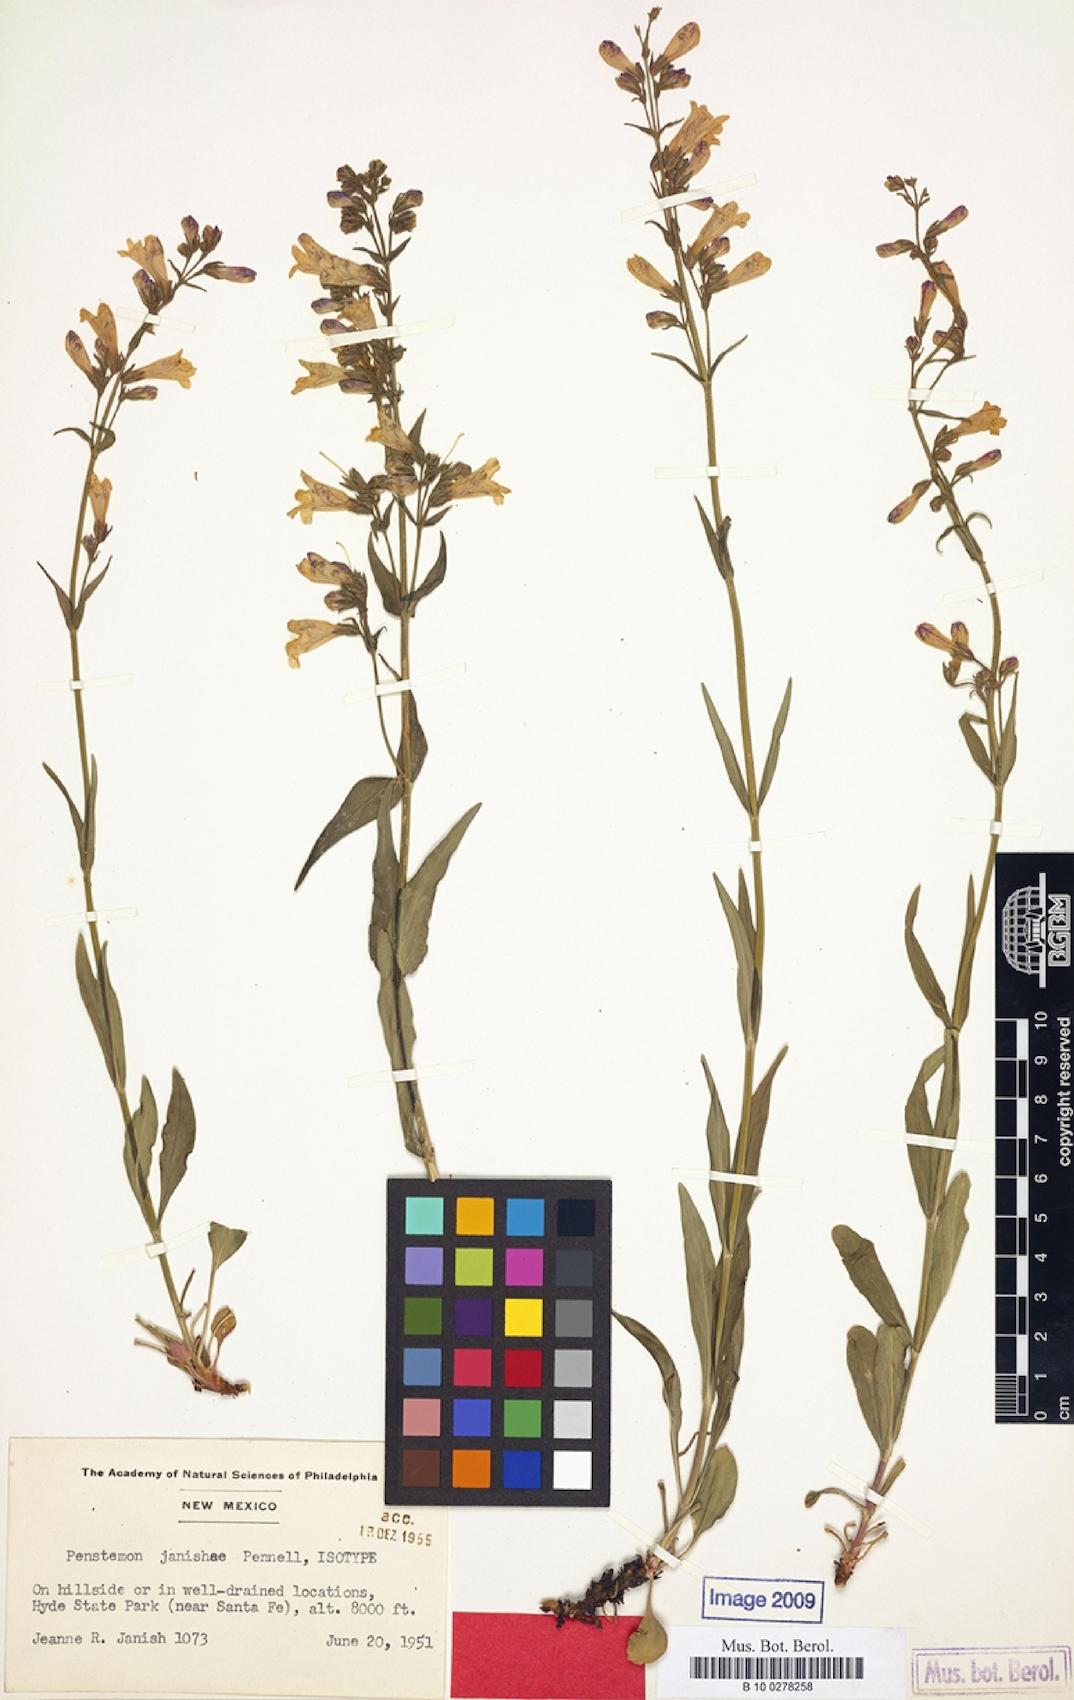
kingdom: Plantae
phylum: Tracheophyta
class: Magnoliopsida
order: Lamiales
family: Scrophulariaceae
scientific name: Scrophulariaceae
